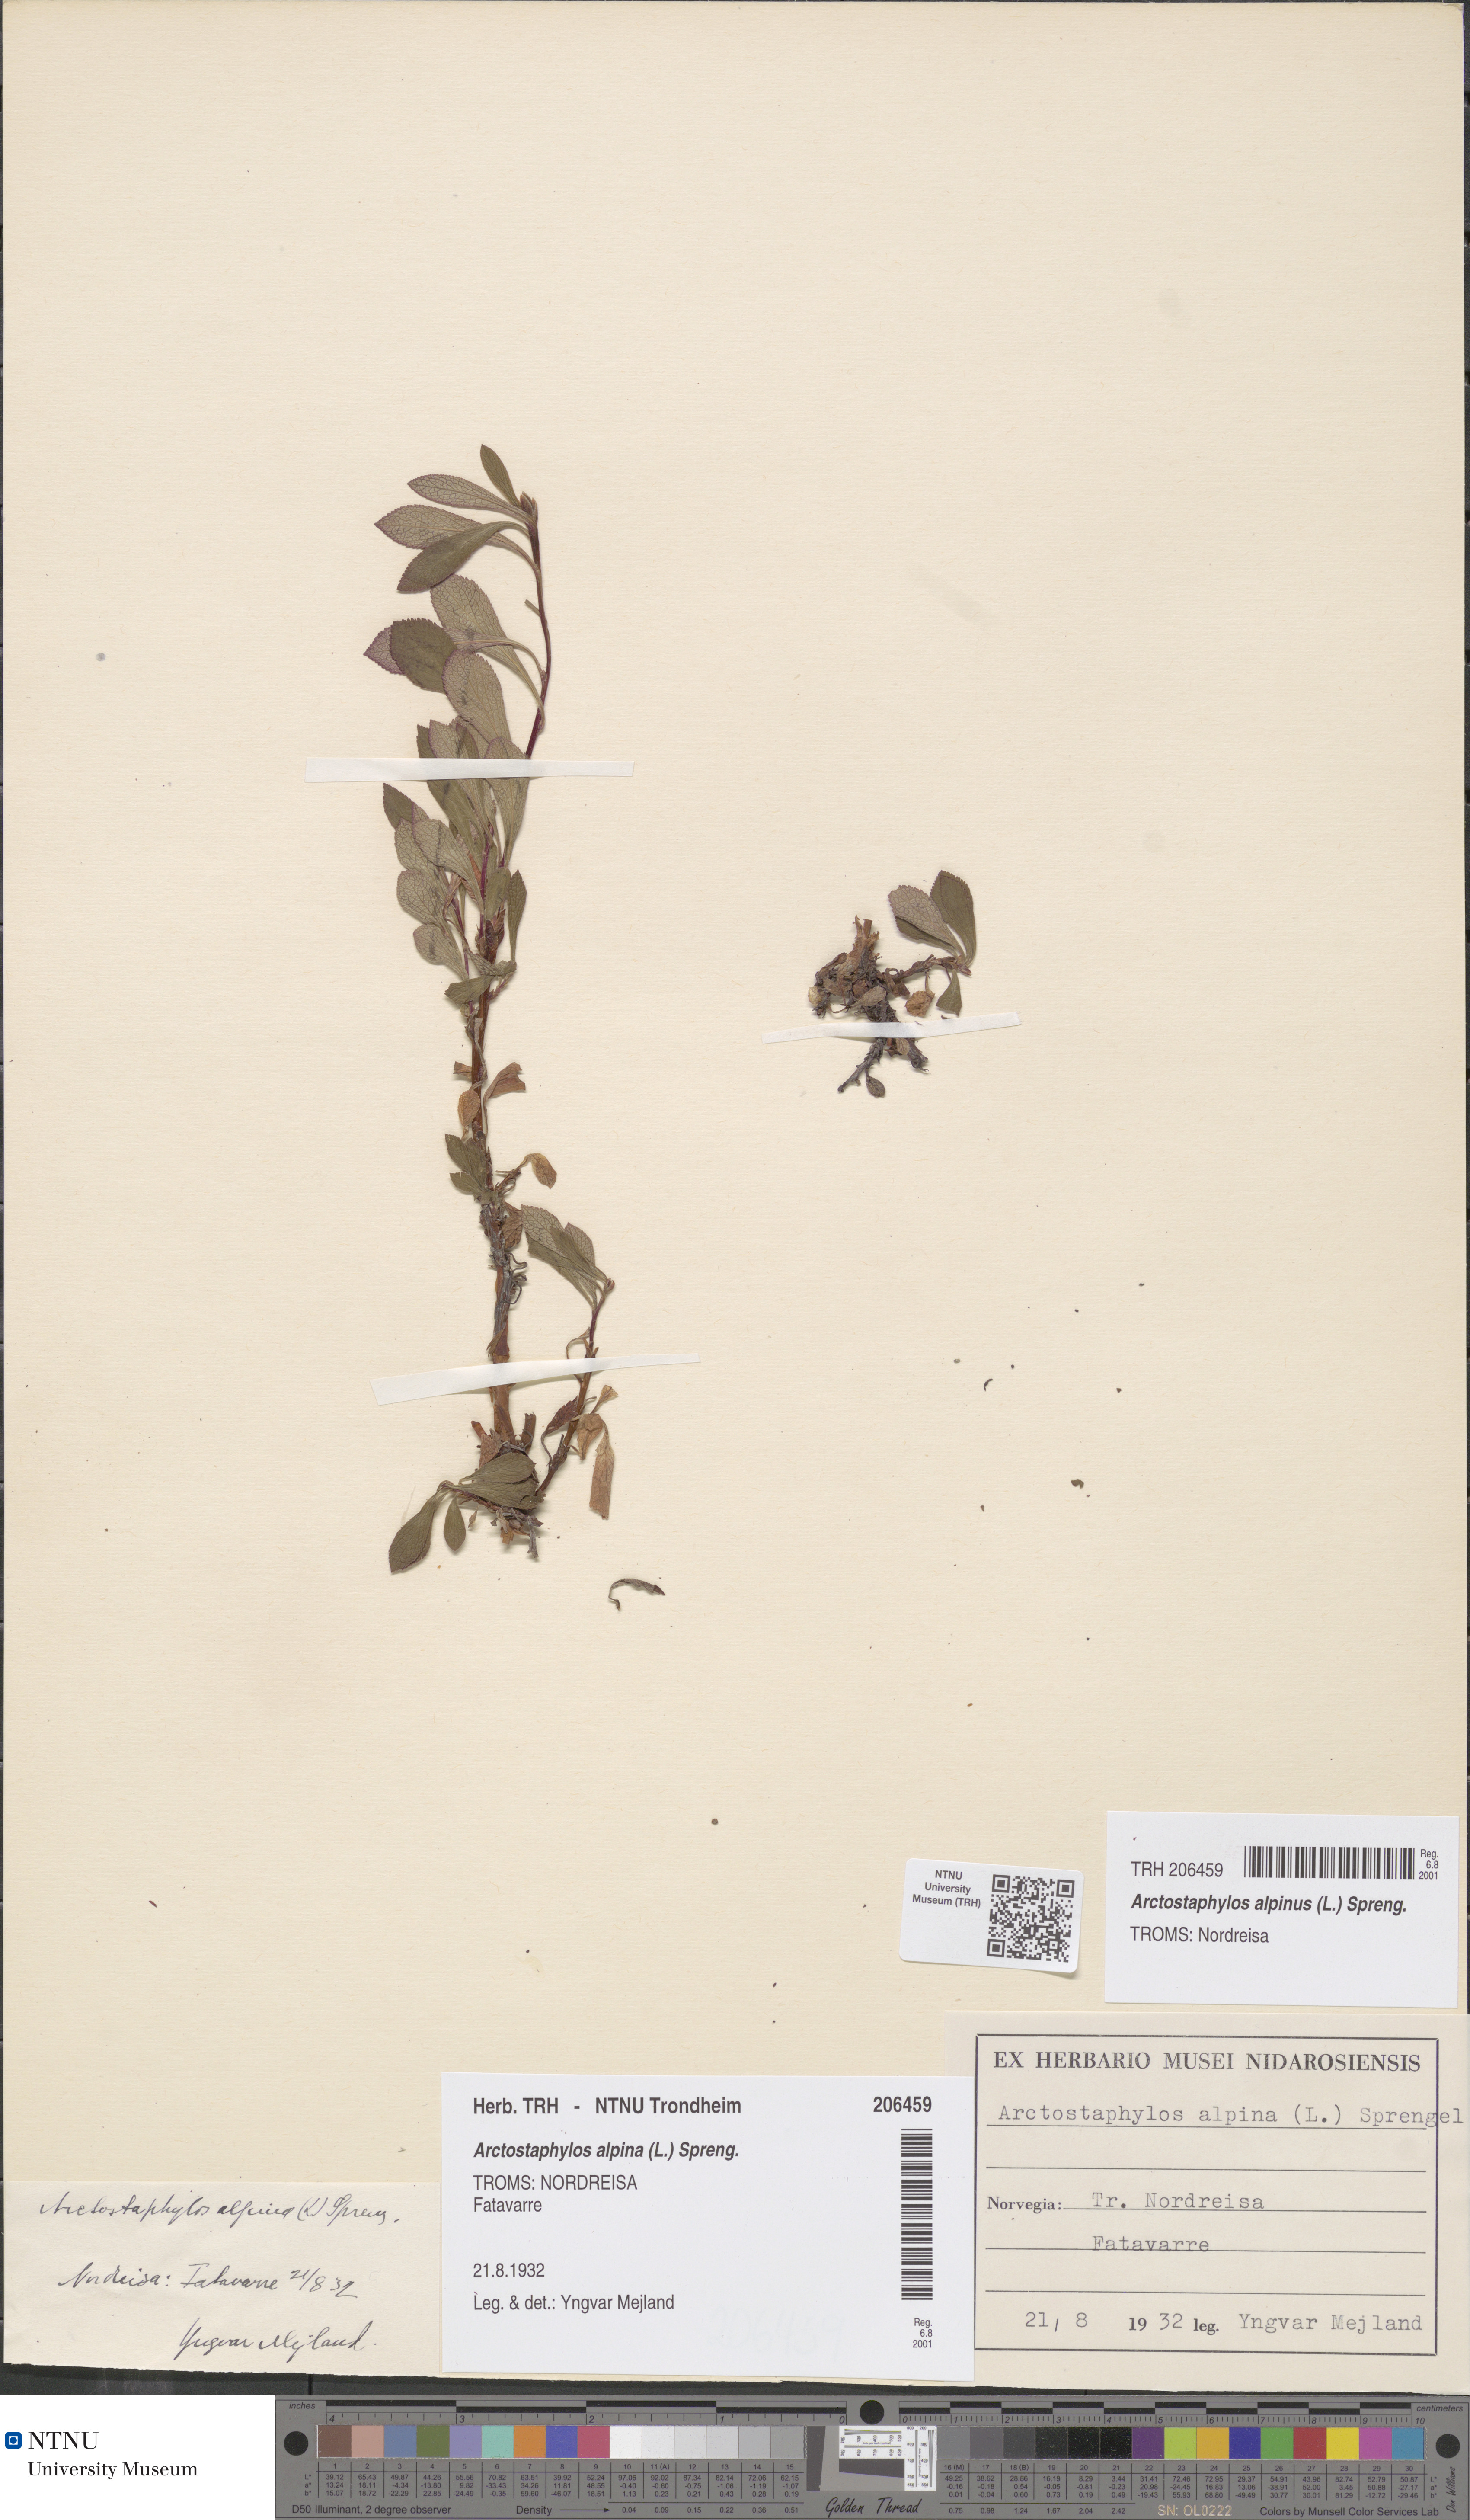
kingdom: Plantae
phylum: Tracheophyta
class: Magnoliopsida
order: Ericales
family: Ericaceae
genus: Arctostaphylos
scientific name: Arctostaphylos alpinus
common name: Alpine bearberry
